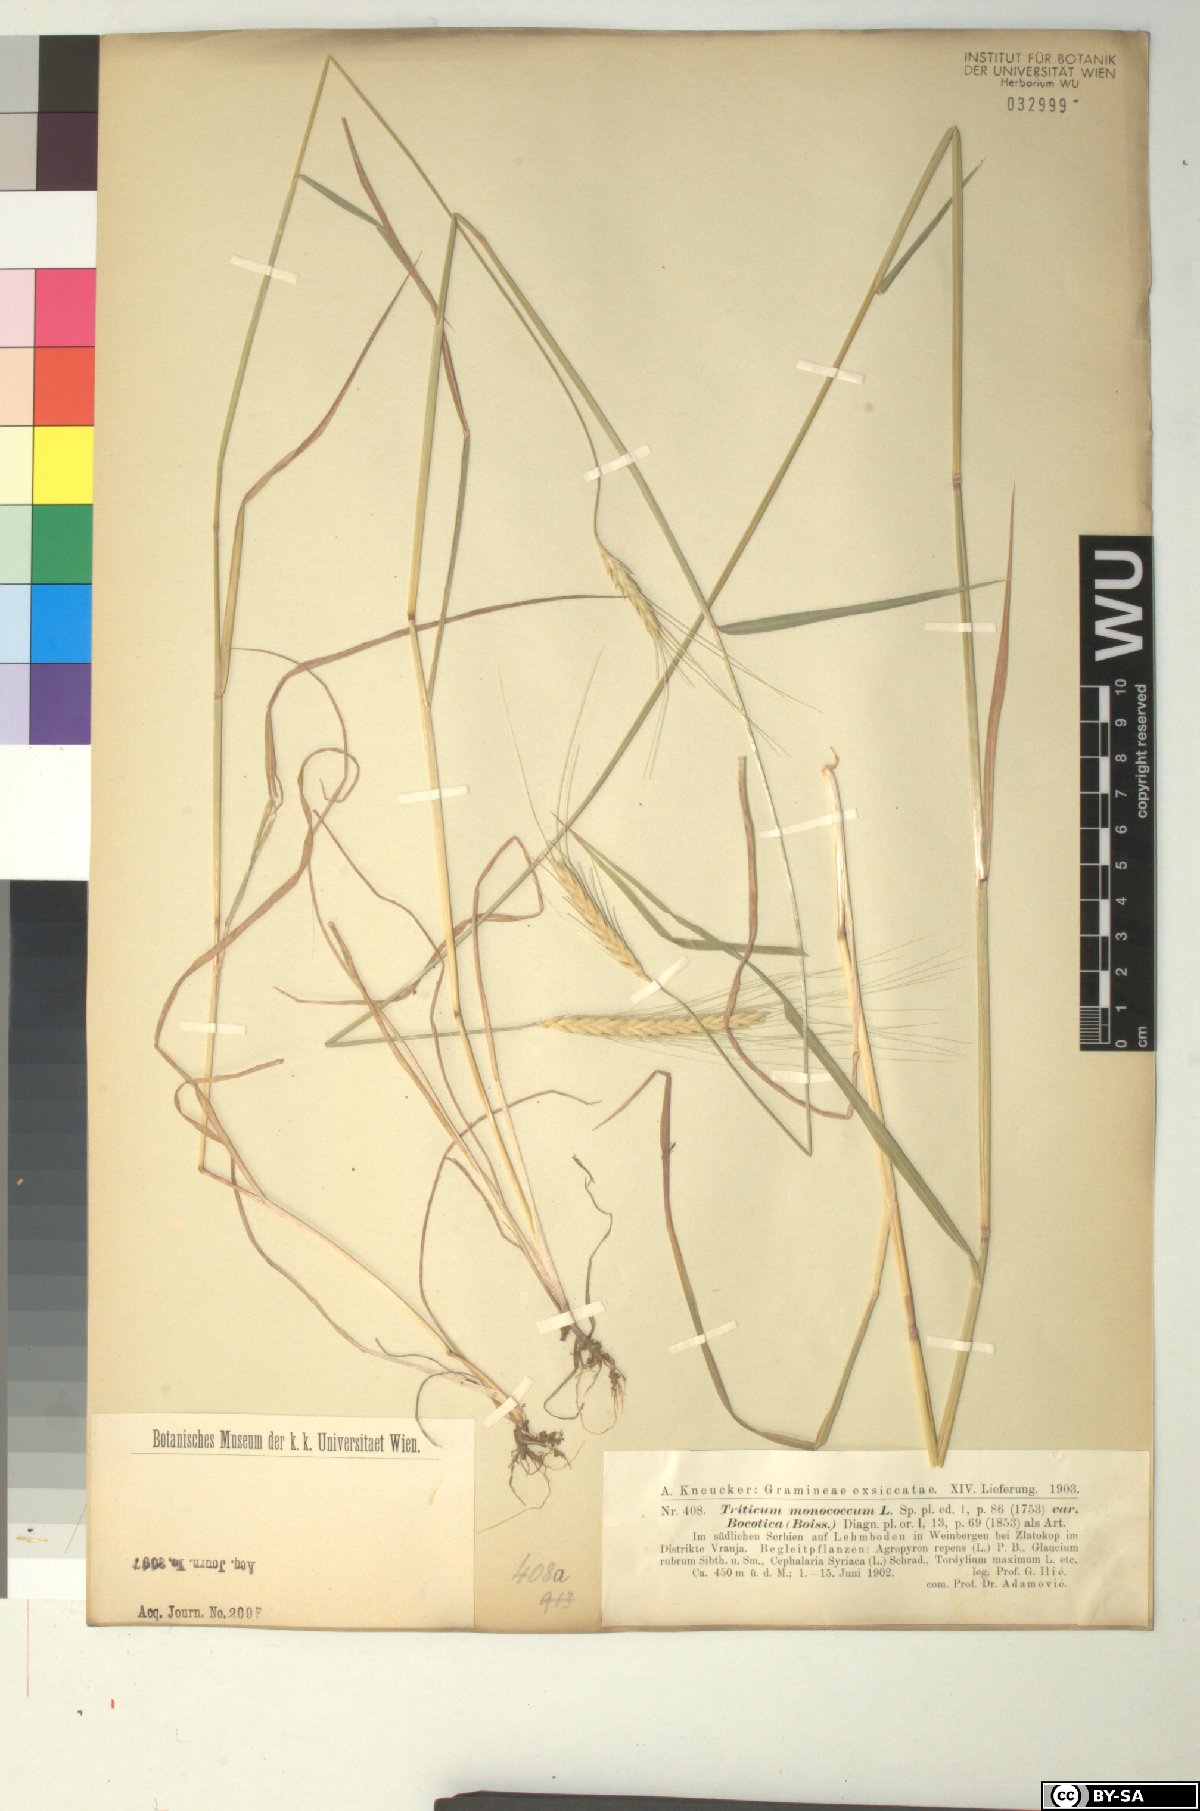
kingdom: Plantae
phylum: Tracheophyta
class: Liliopsida
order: Poales
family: Poaceae
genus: Triticum
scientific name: Triticum monococcum
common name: Einkorn
